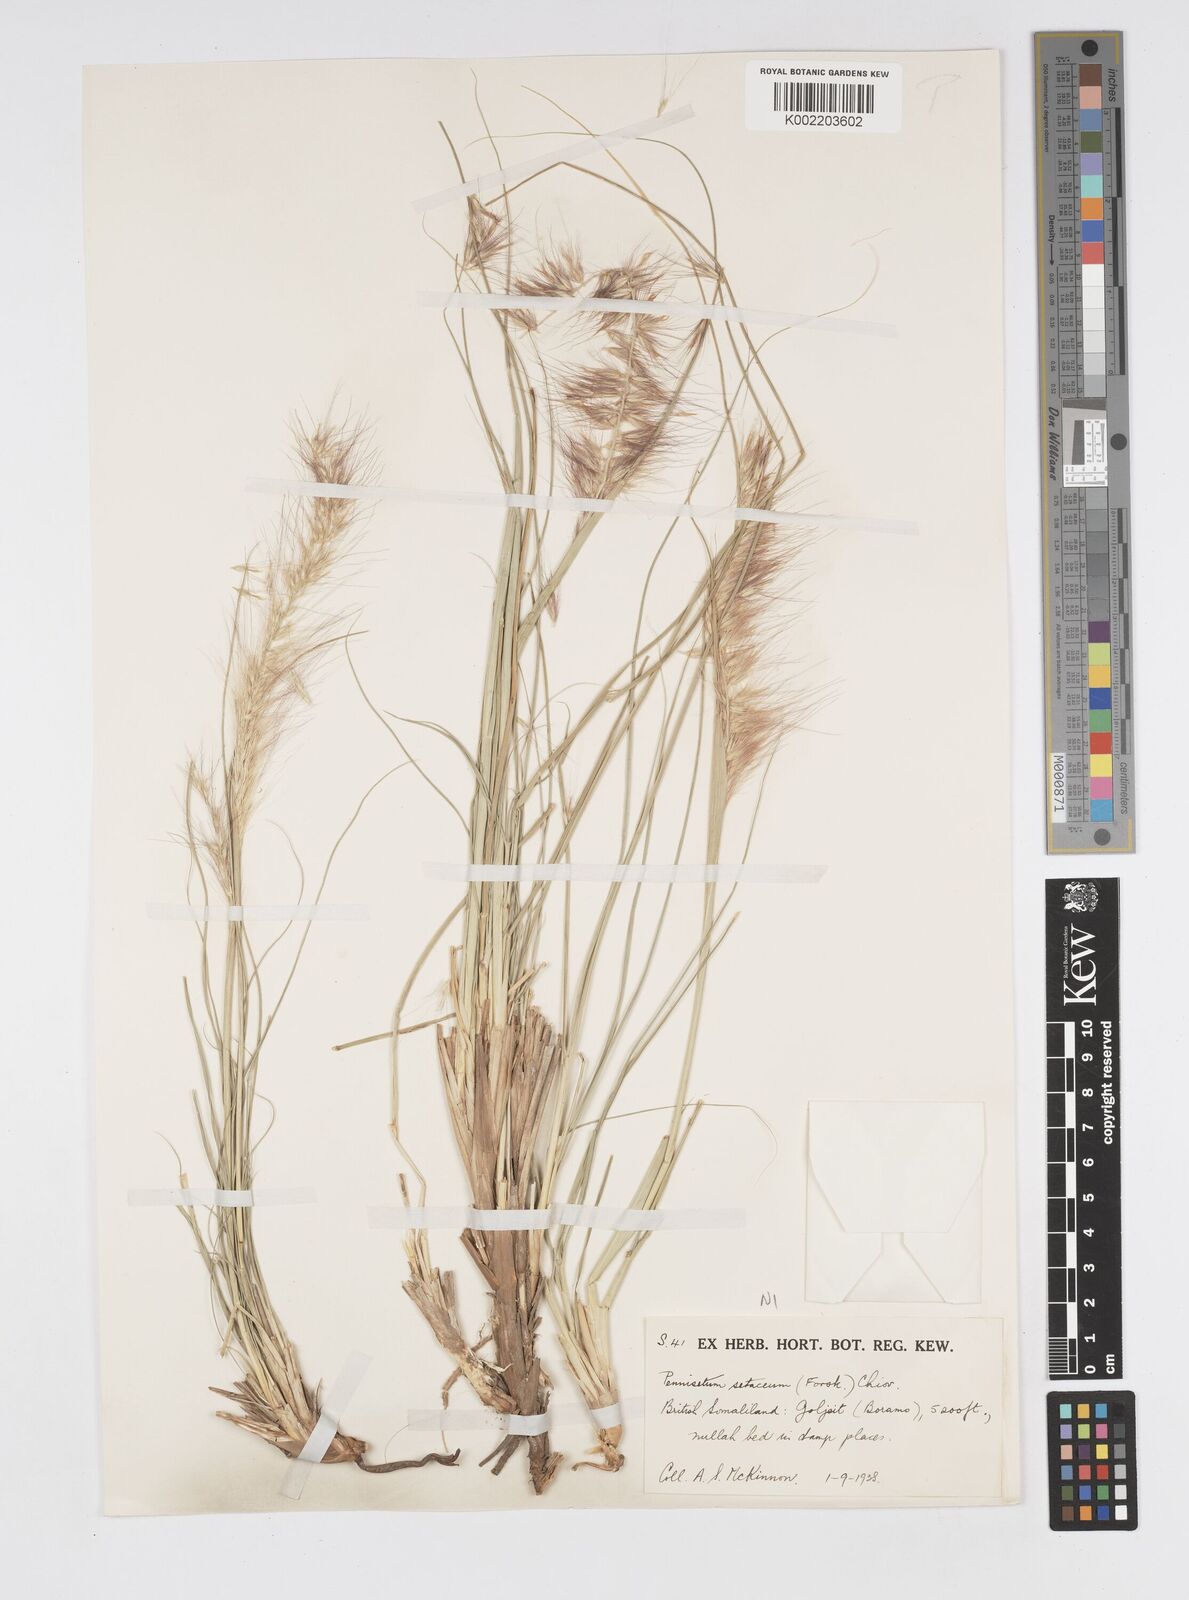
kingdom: Plantae
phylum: Tracheophyta
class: Liliopsida
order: Poales
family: Poaceae
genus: Cenchrus
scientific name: Cenchrus setaceus
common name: Crimson fountaingrass
